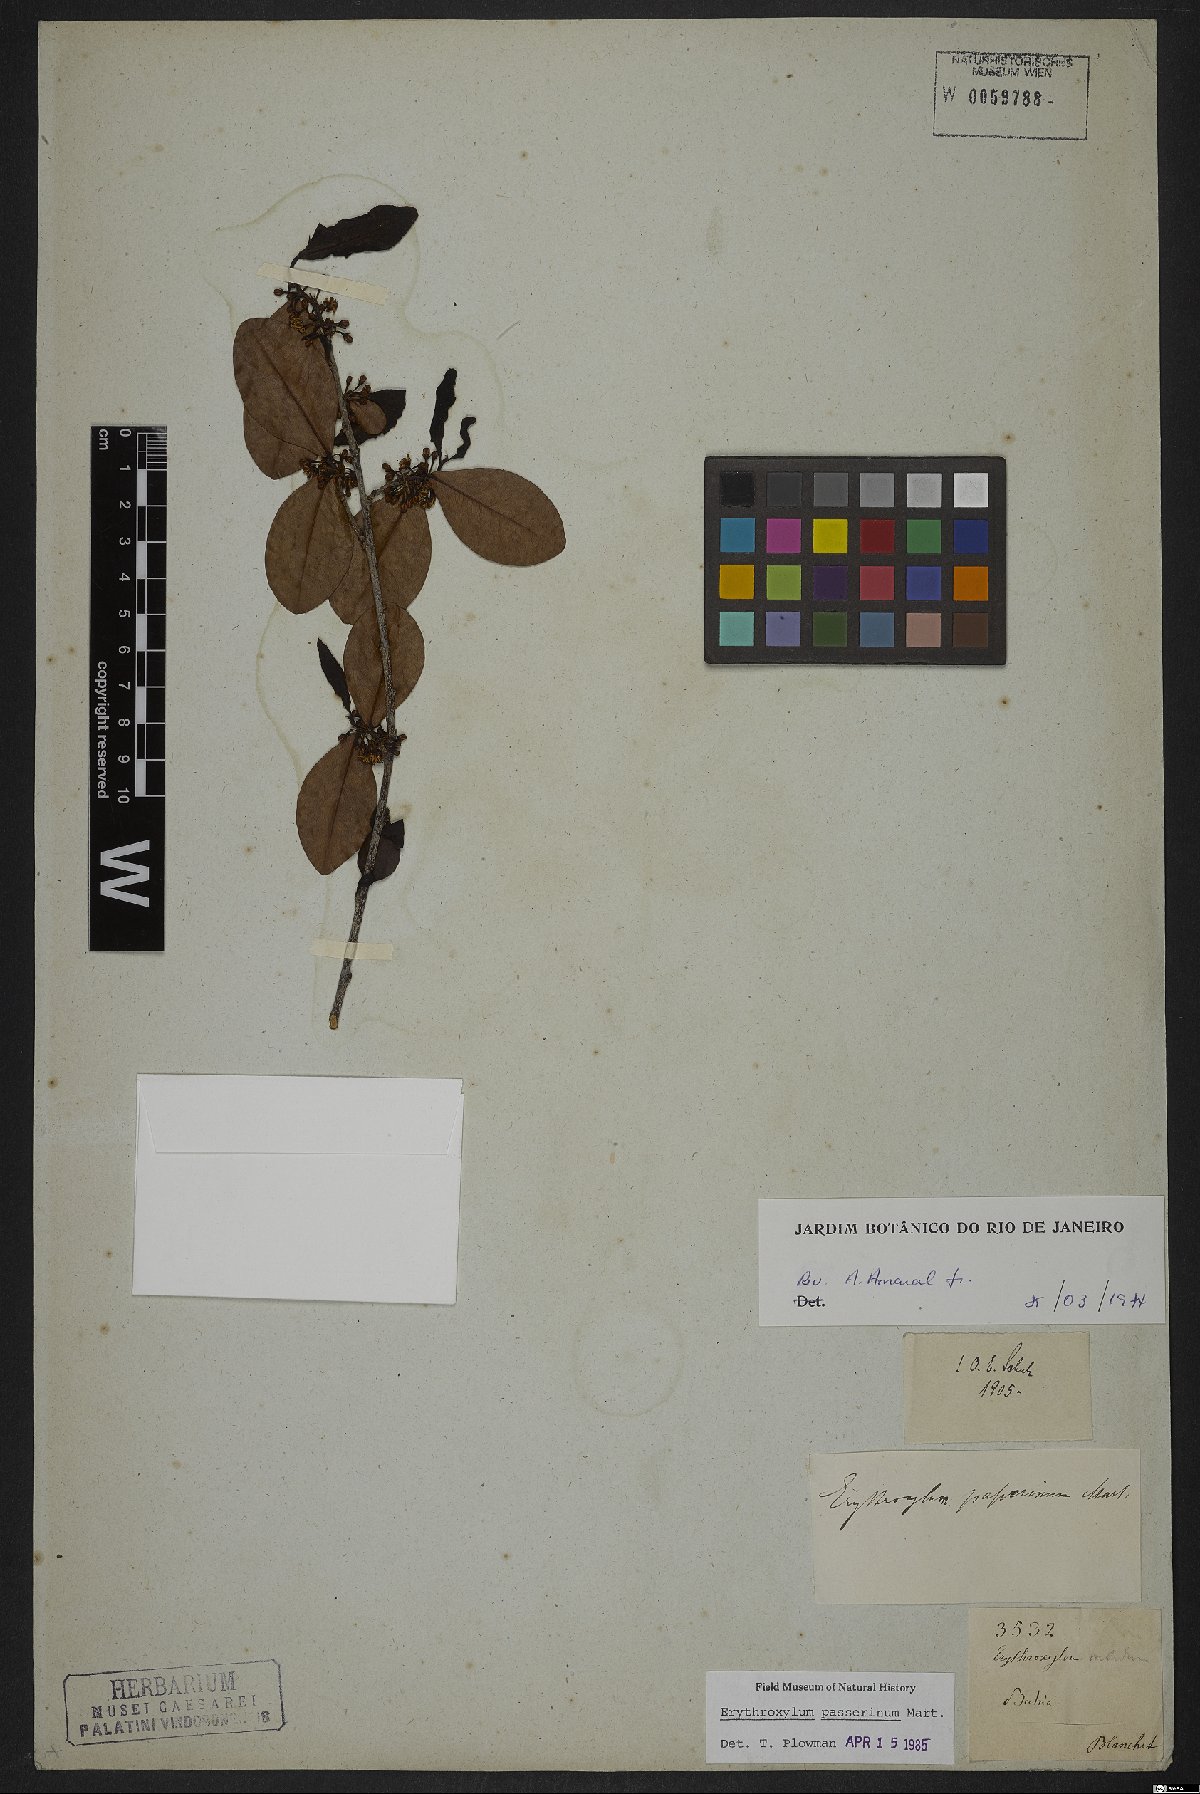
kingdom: Plantae
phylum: Tracheophyta
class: Magnoliopsida
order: Malpighiales
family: Erythroxylaceae
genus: Erythroxylum
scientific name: Erythroxylum passerinum
